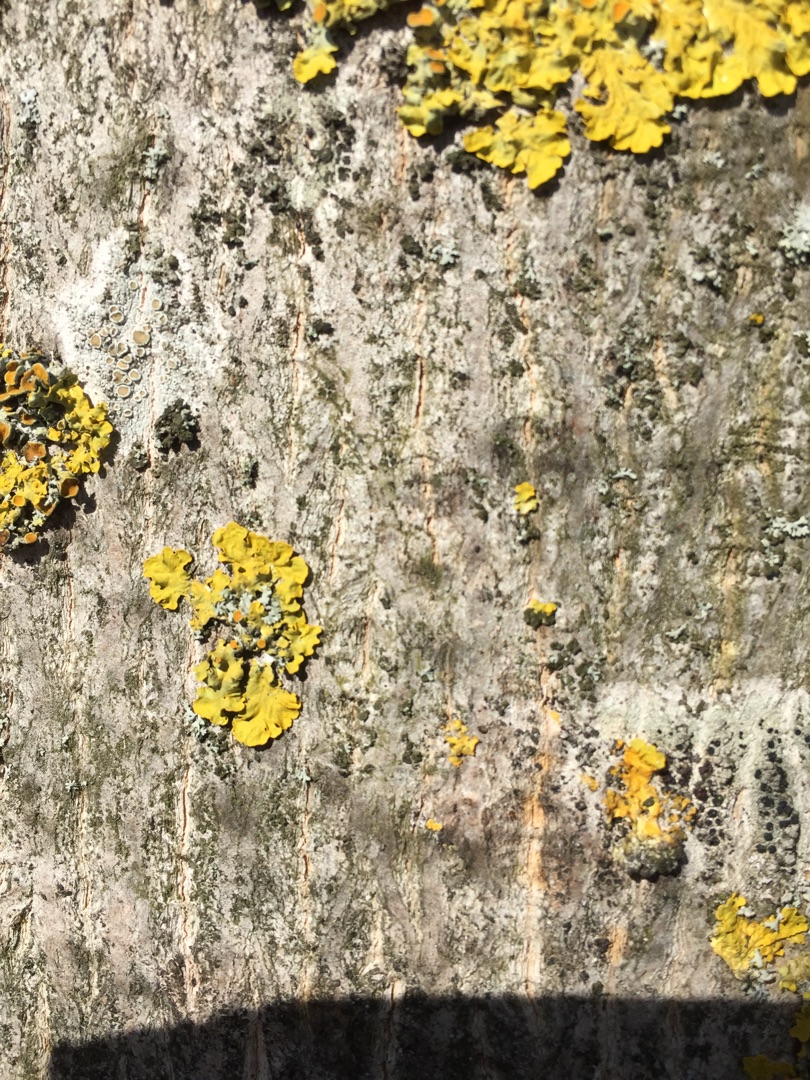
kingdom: Fungi
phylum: Ascomycota
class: Lecanoromycetes
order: Teloschistales
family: Teloschistaceae
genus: Xanthoria
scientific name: Xanthoria parietina
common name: Almindelig væggelav
